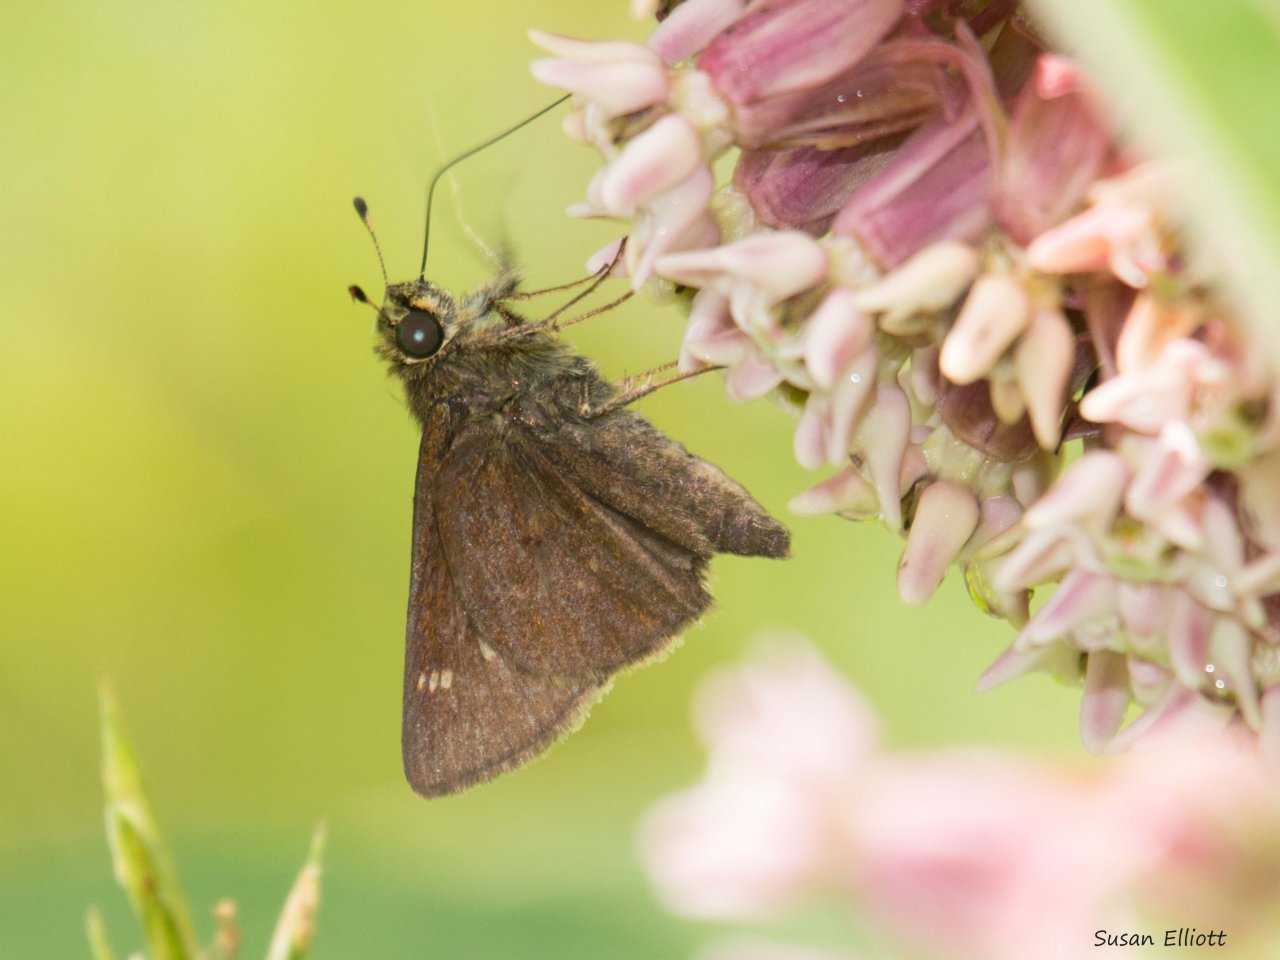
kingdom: Animalia
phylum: Arthropoda
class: Insecta
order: Lepidoptera
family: Hesperiidae
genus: Vernia
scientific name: Vernia verna
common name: Little Glassywing
